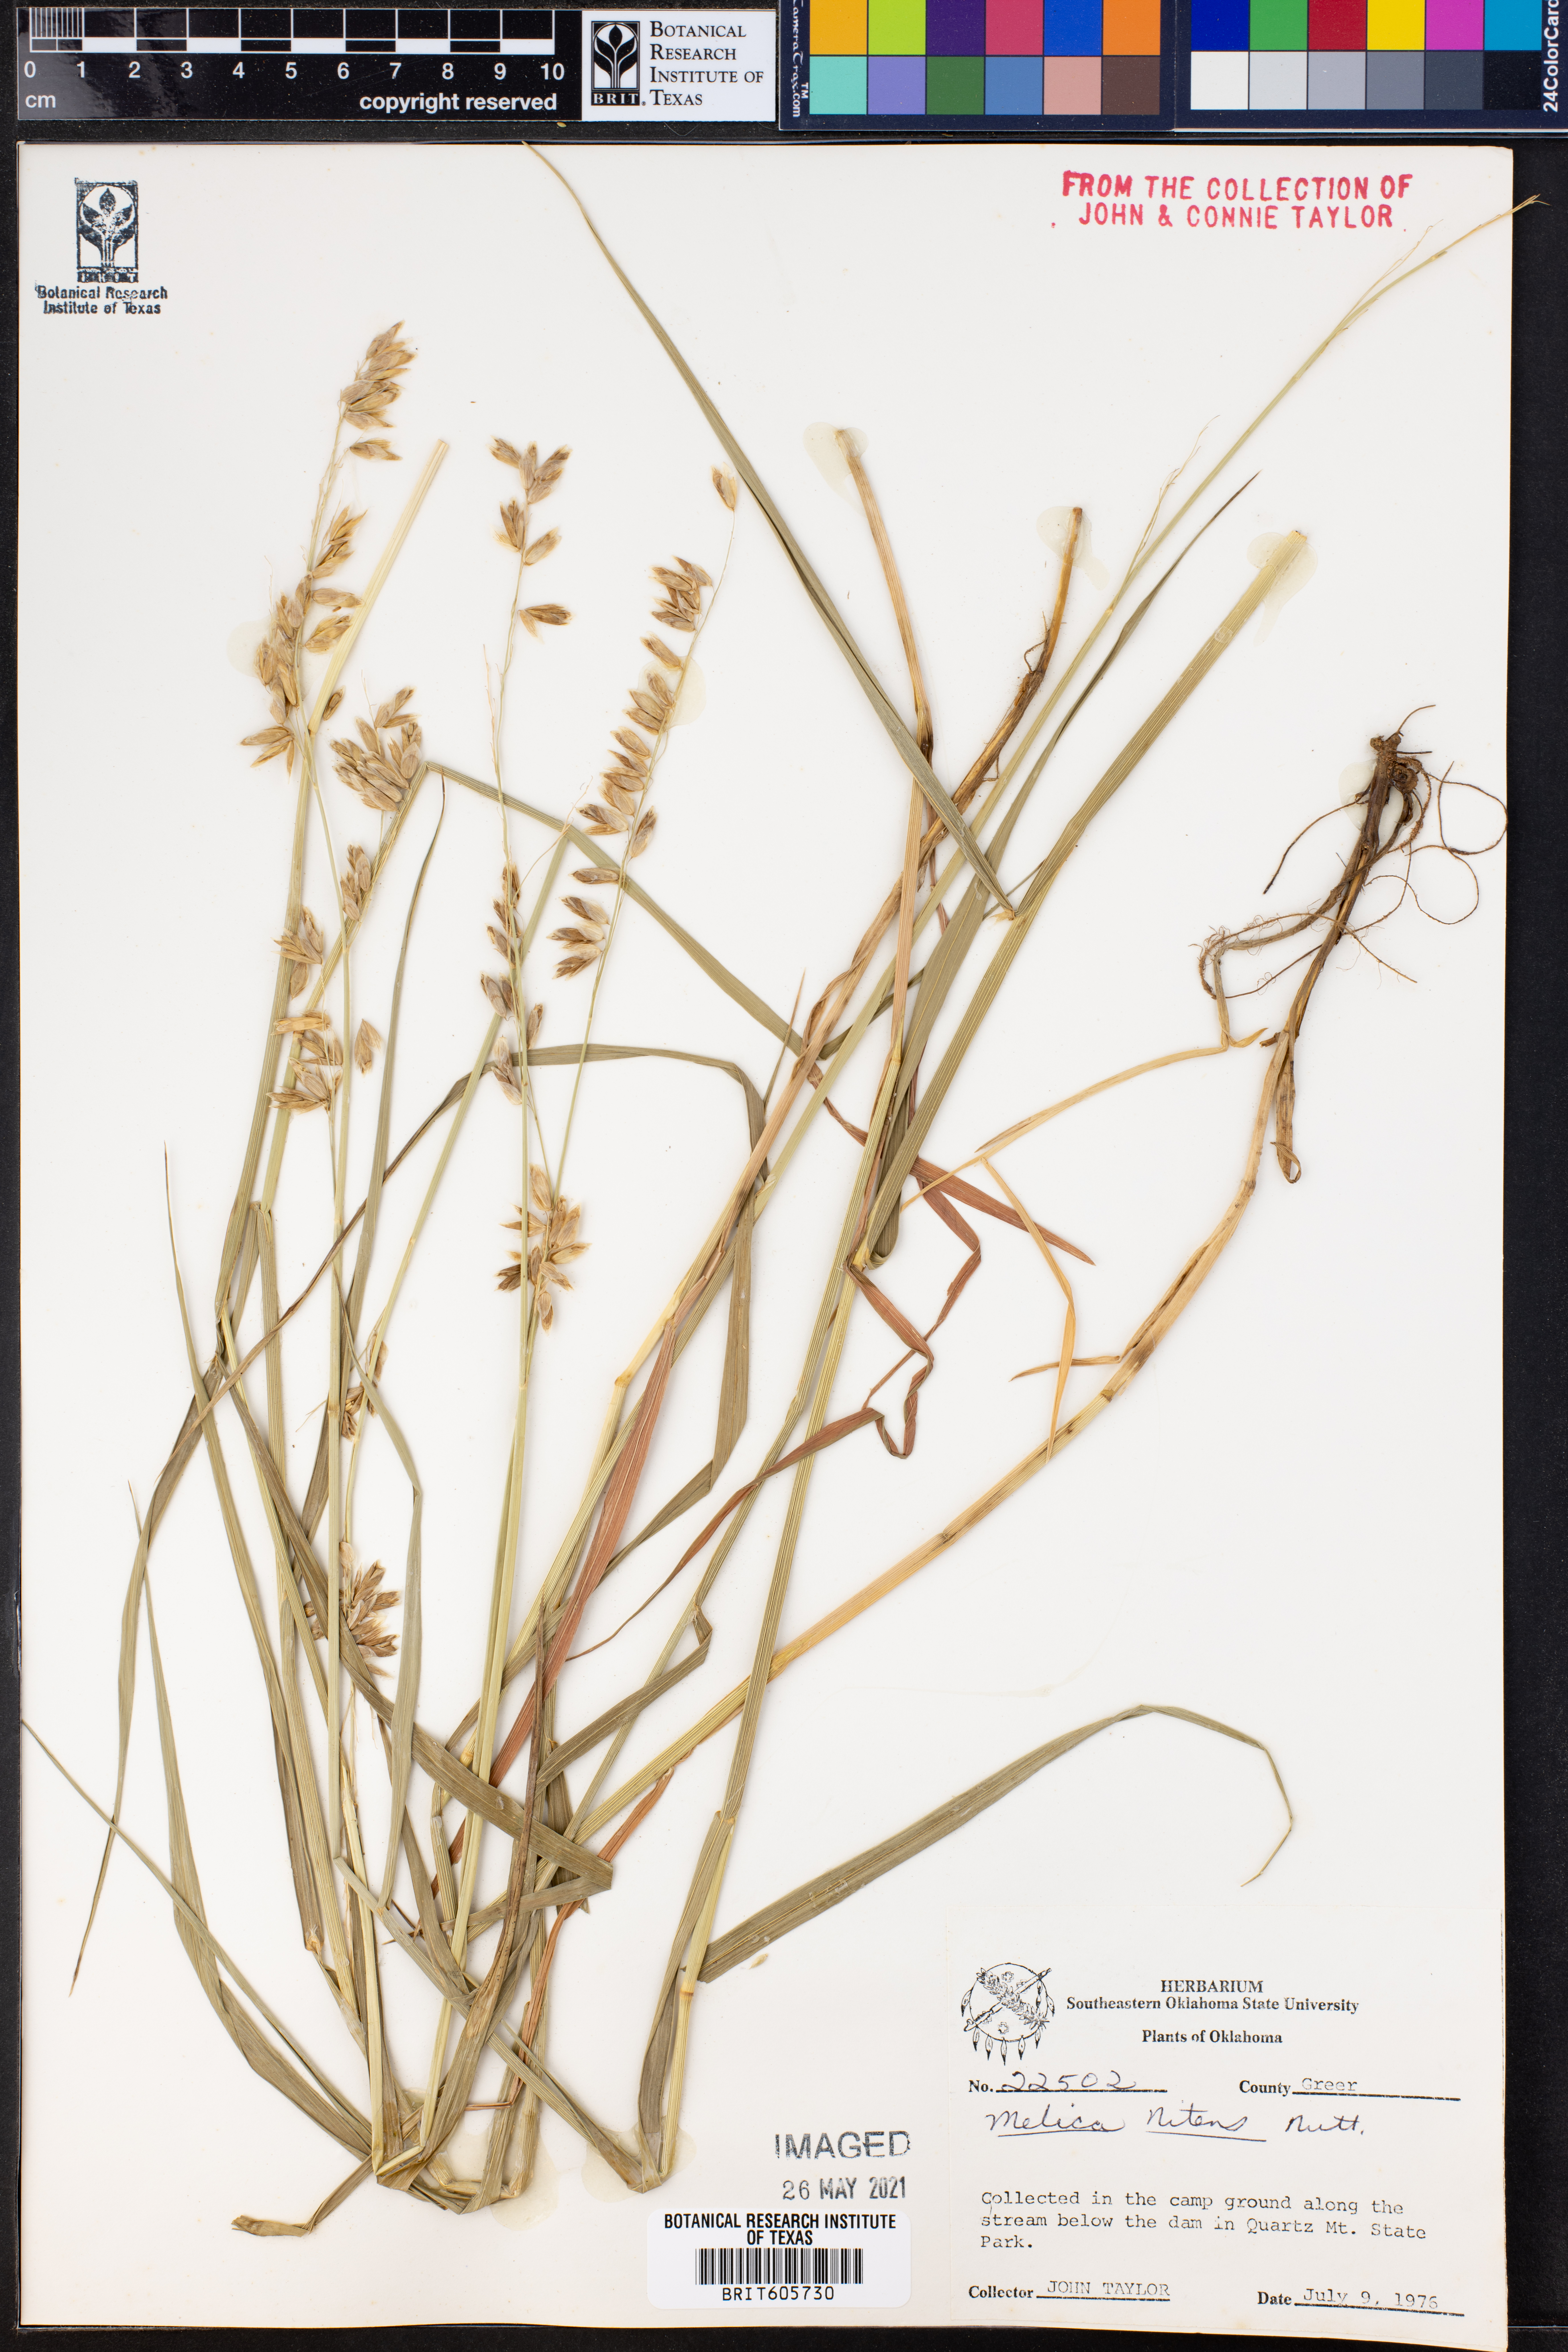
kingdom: Plantae
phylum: Tracheophyta
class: Liliopsida
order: Poales
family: Poaceae
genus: Melica
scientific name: Melica nitens
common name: Three-flower melic
